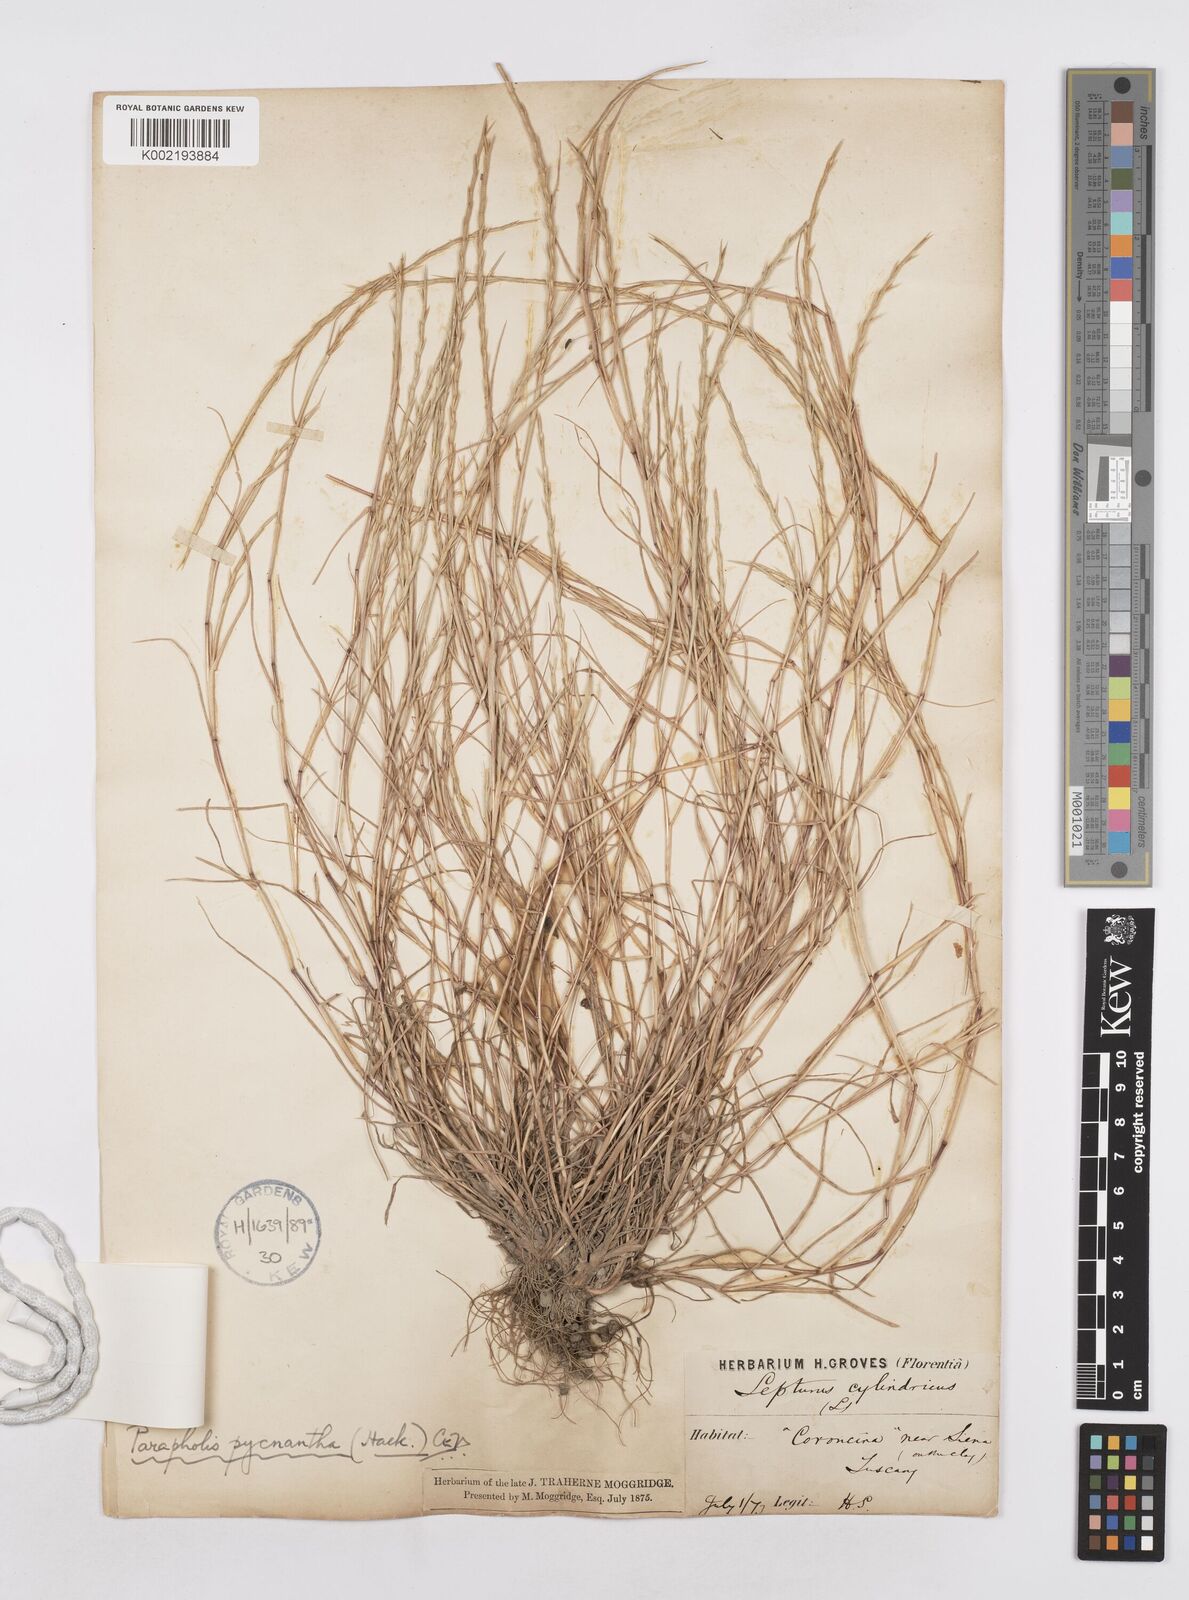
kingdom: Plantae
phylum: Tracheophyta
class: Liliopsida
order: Poales
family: Poaceae
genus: Parapholis
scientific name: Parapholis pycnantha
